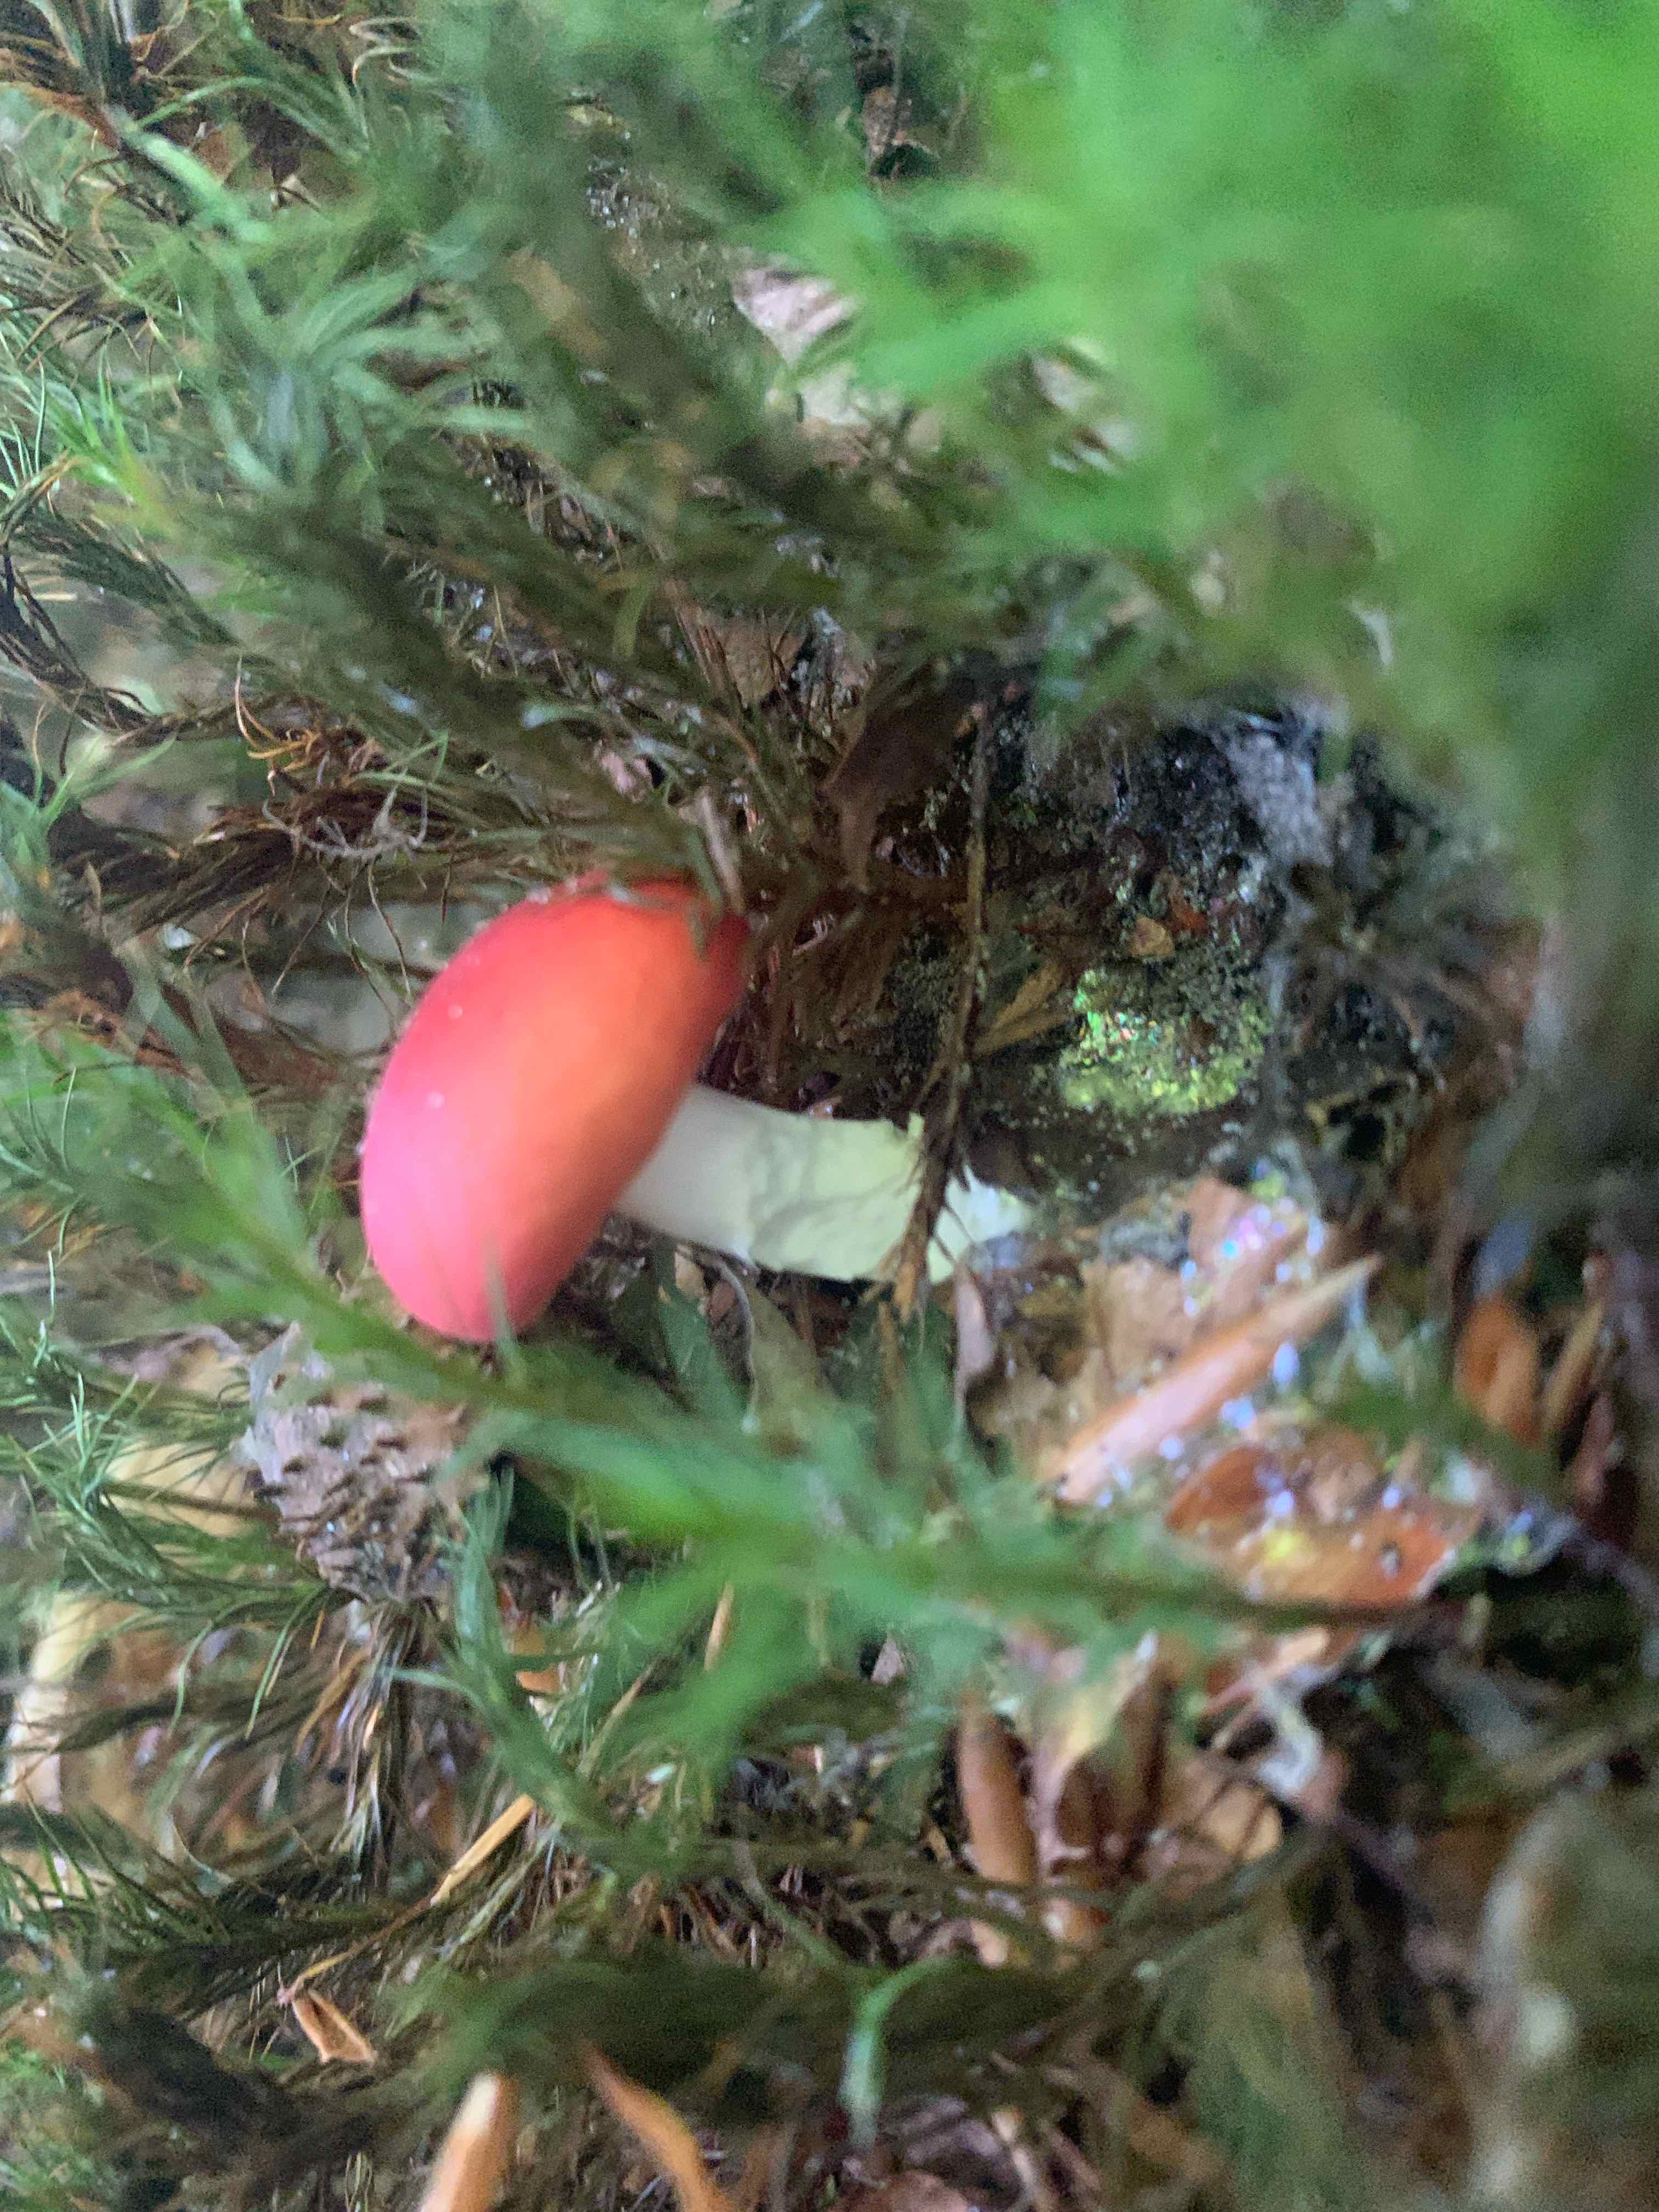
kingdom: Fungi
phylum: Basidiomycota
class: Agaricomycetes
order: Russulales
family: Russulaceae
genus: Russula
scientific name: Russula nobilis
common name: lille gift-skørhat
